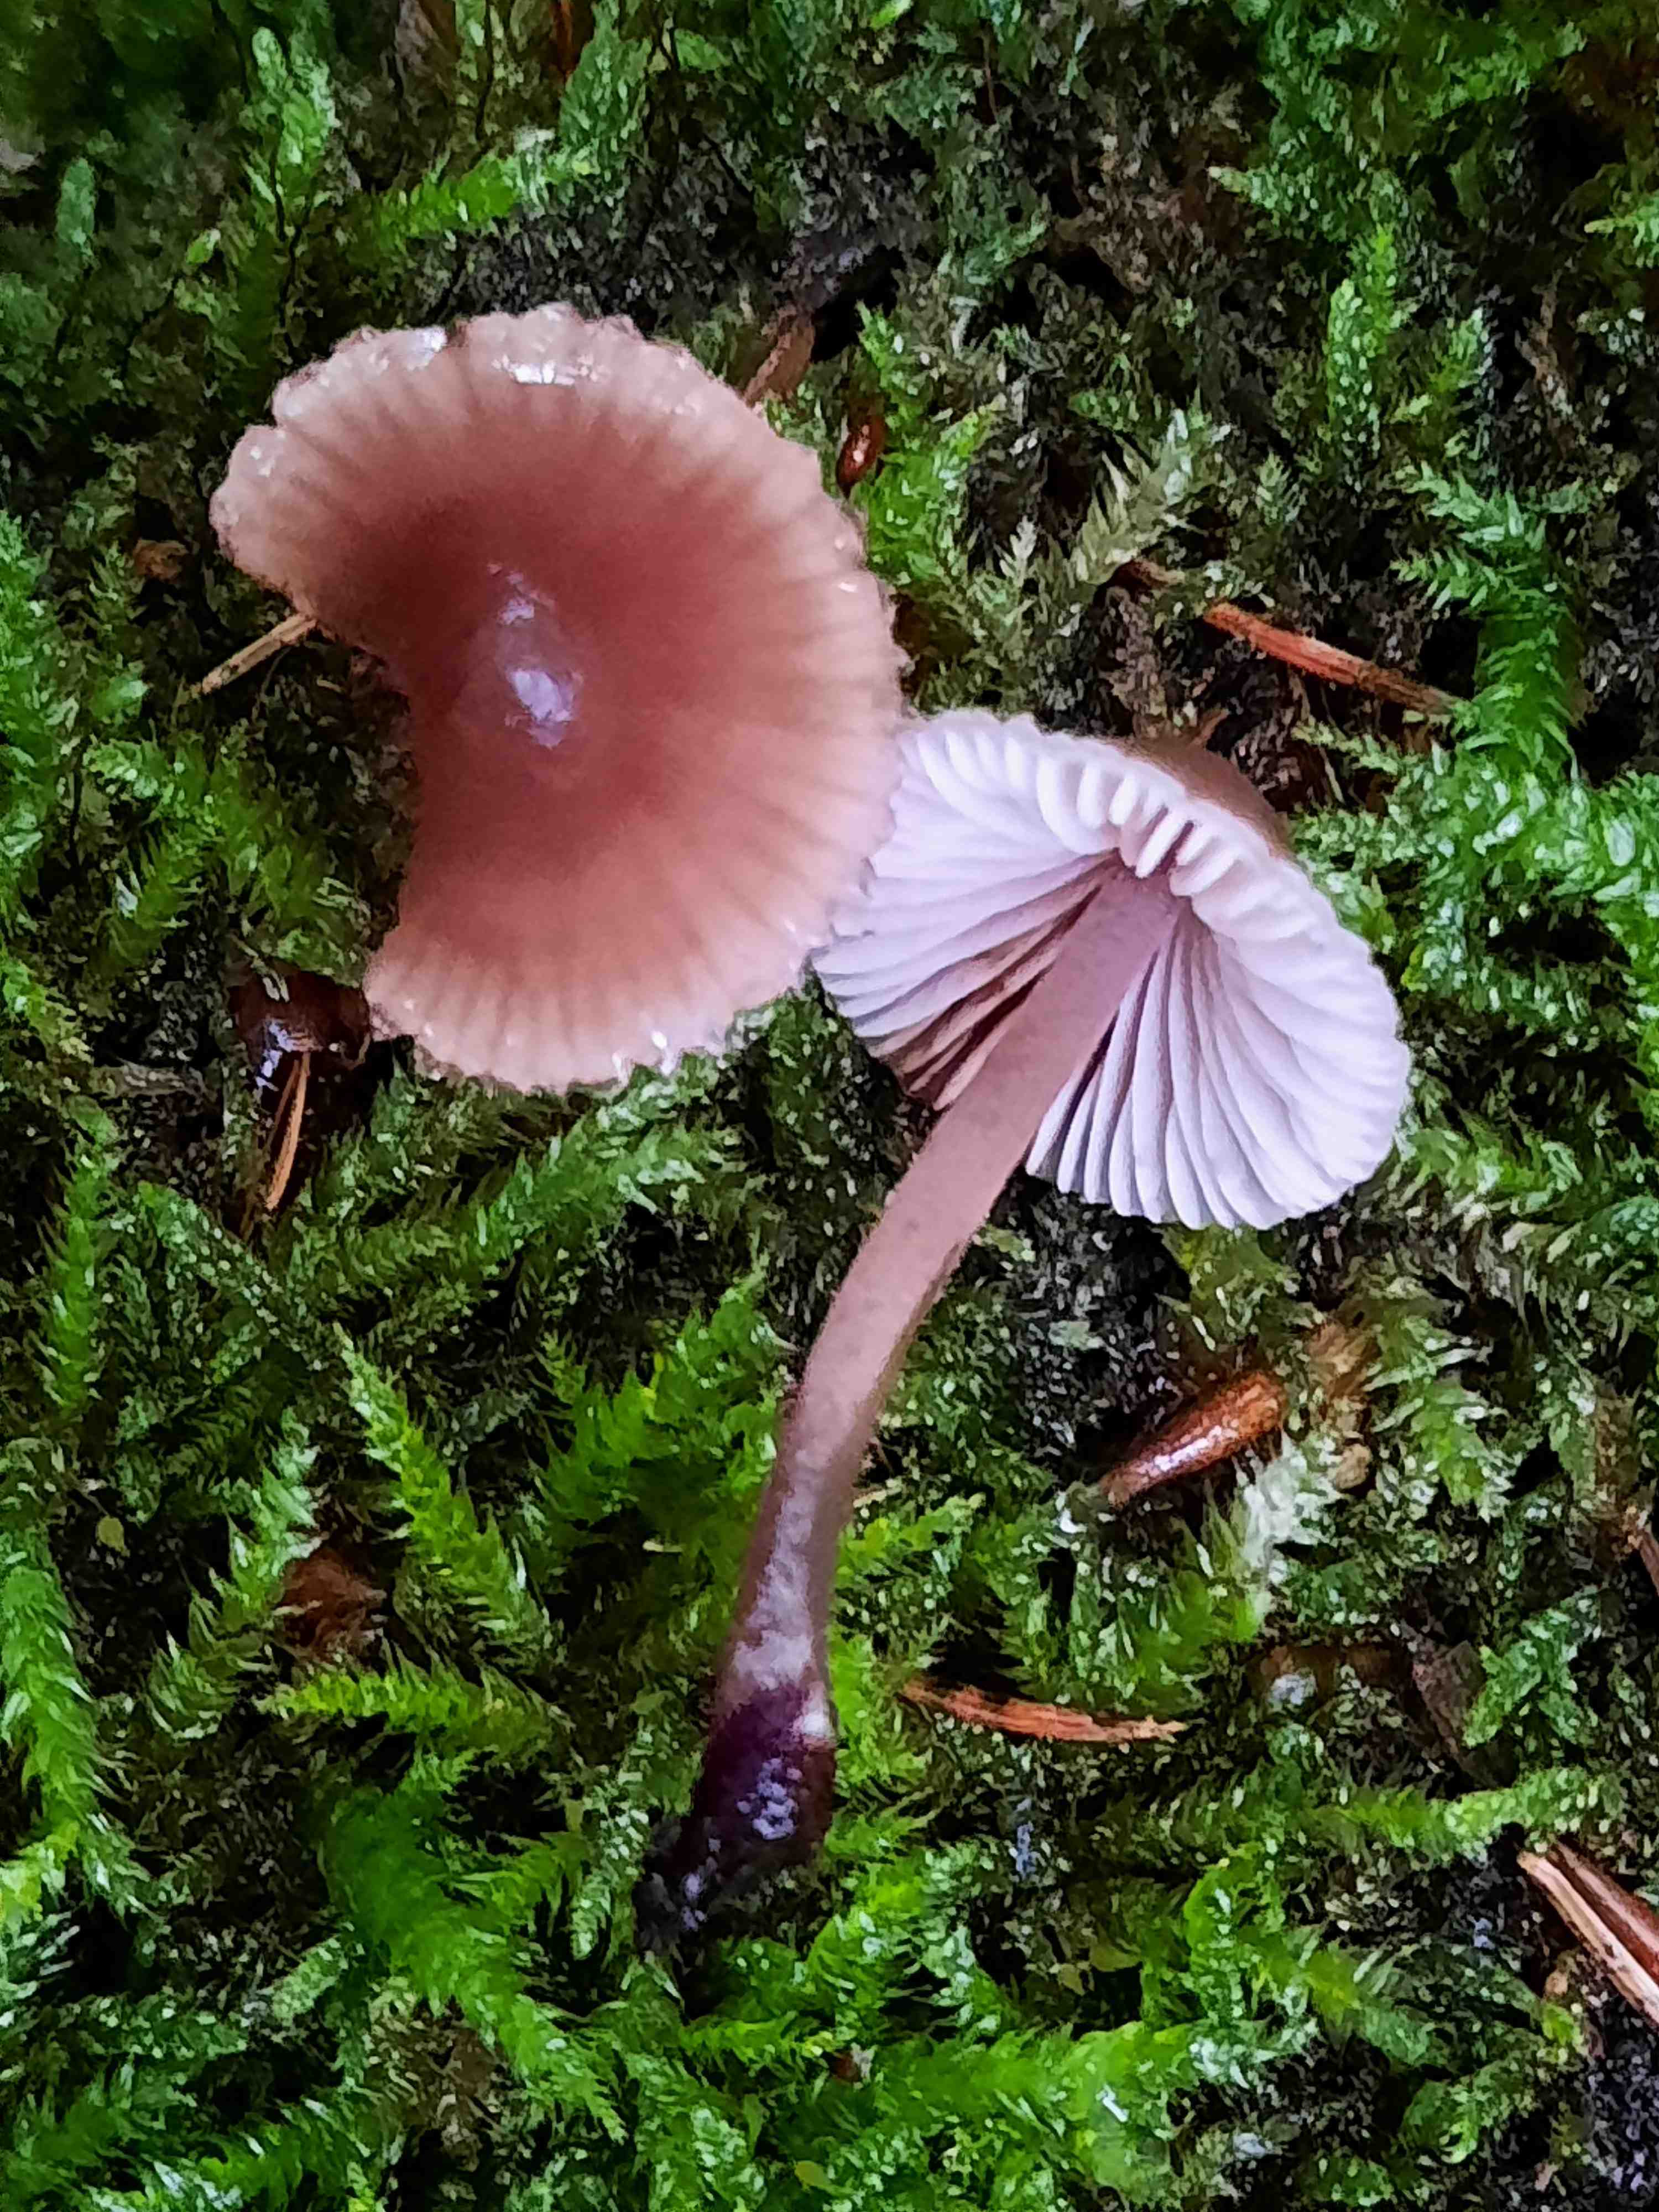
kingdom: Fungi
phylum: Basidiomycota
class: Agaricomycetes
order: Agaricales
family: Mycenaceae
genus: Mycena
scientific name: Mycena
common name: huesvamp
